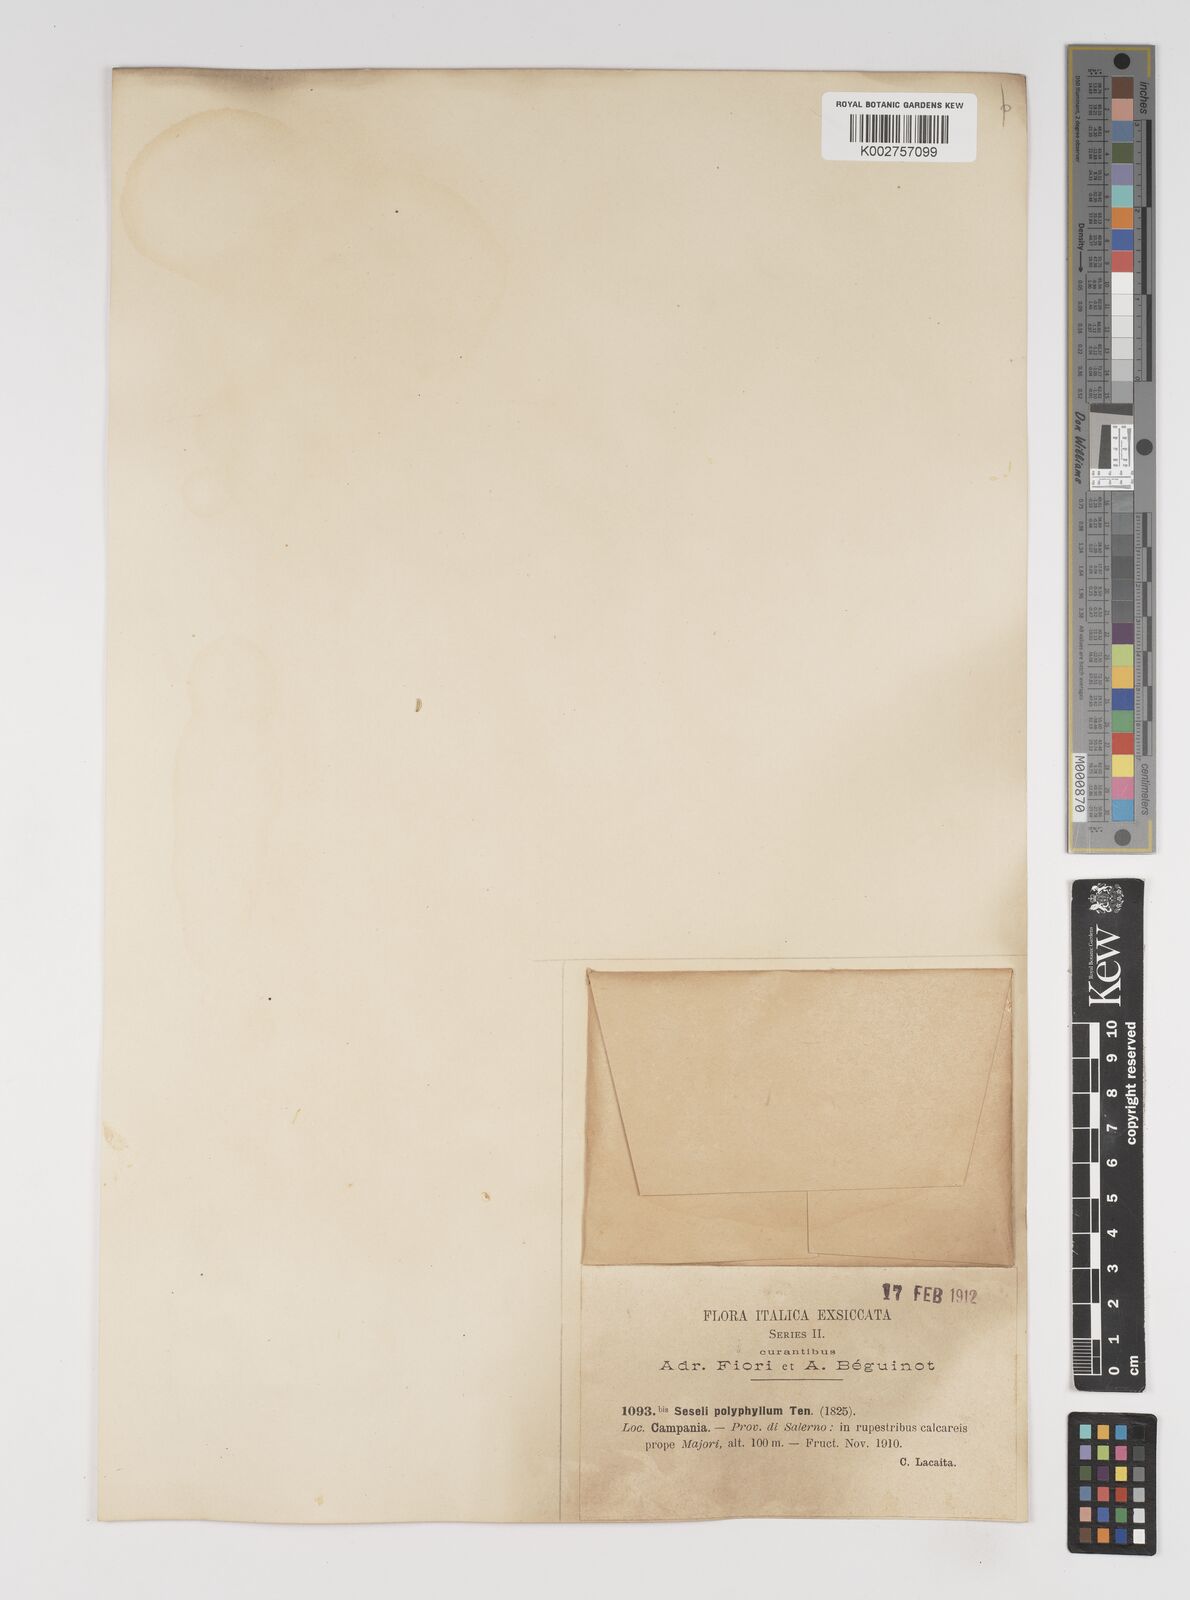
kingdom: Plantae
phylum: Tracheophyta
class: Magnoliopsida
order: Apiales
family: Apiaceae
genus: Seseli
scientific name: Seseli montanum
